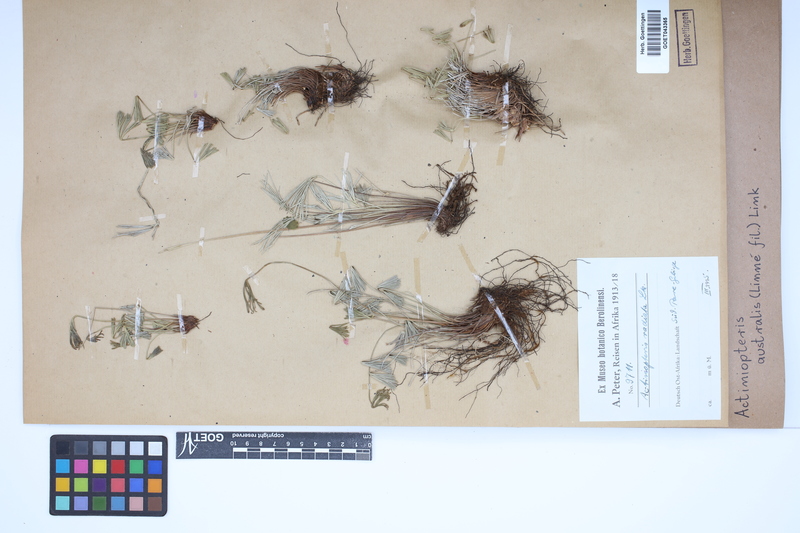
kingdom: Plantae
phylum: Tracheophyta
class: Polypodiopsida
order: Polypodiales
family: Pteridaceae
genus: Actiniopteris
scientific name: Actiniopteris australis
